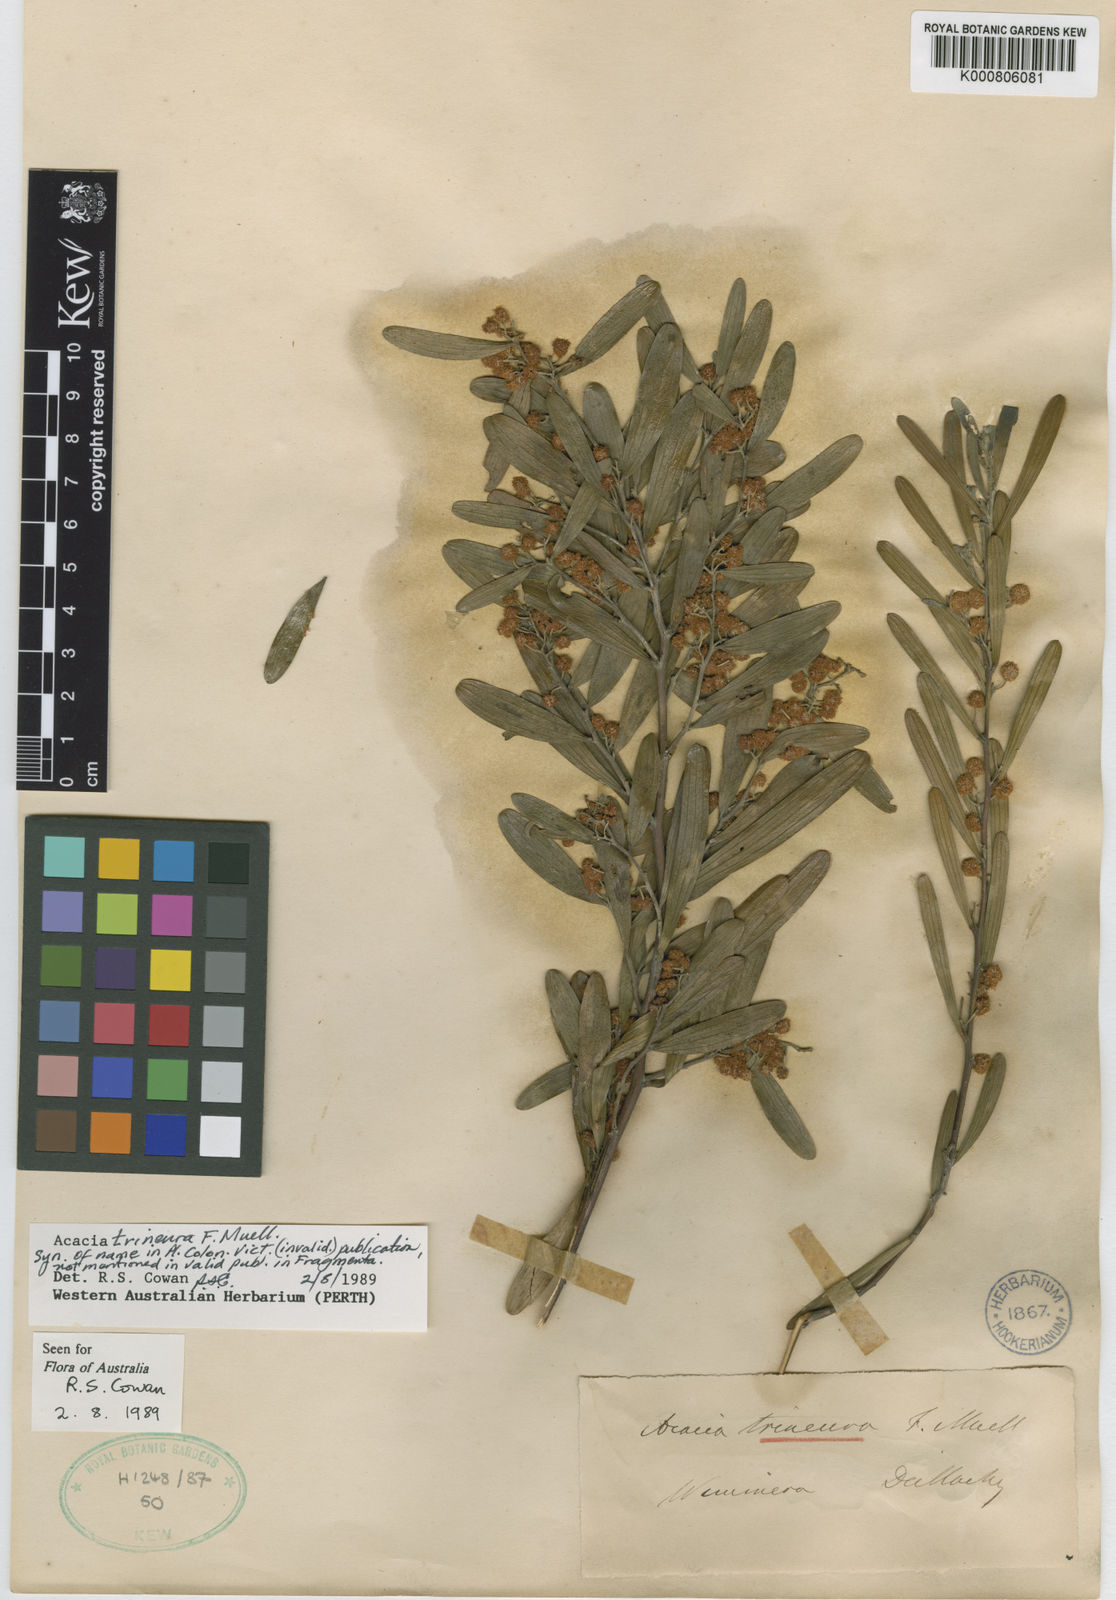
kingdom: Plantae
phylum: Tracheophyta
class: Magnoliopsida
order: Fabales
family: Fabaceae
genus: Acacia
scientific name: Acacia trineura
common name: Green wattle
